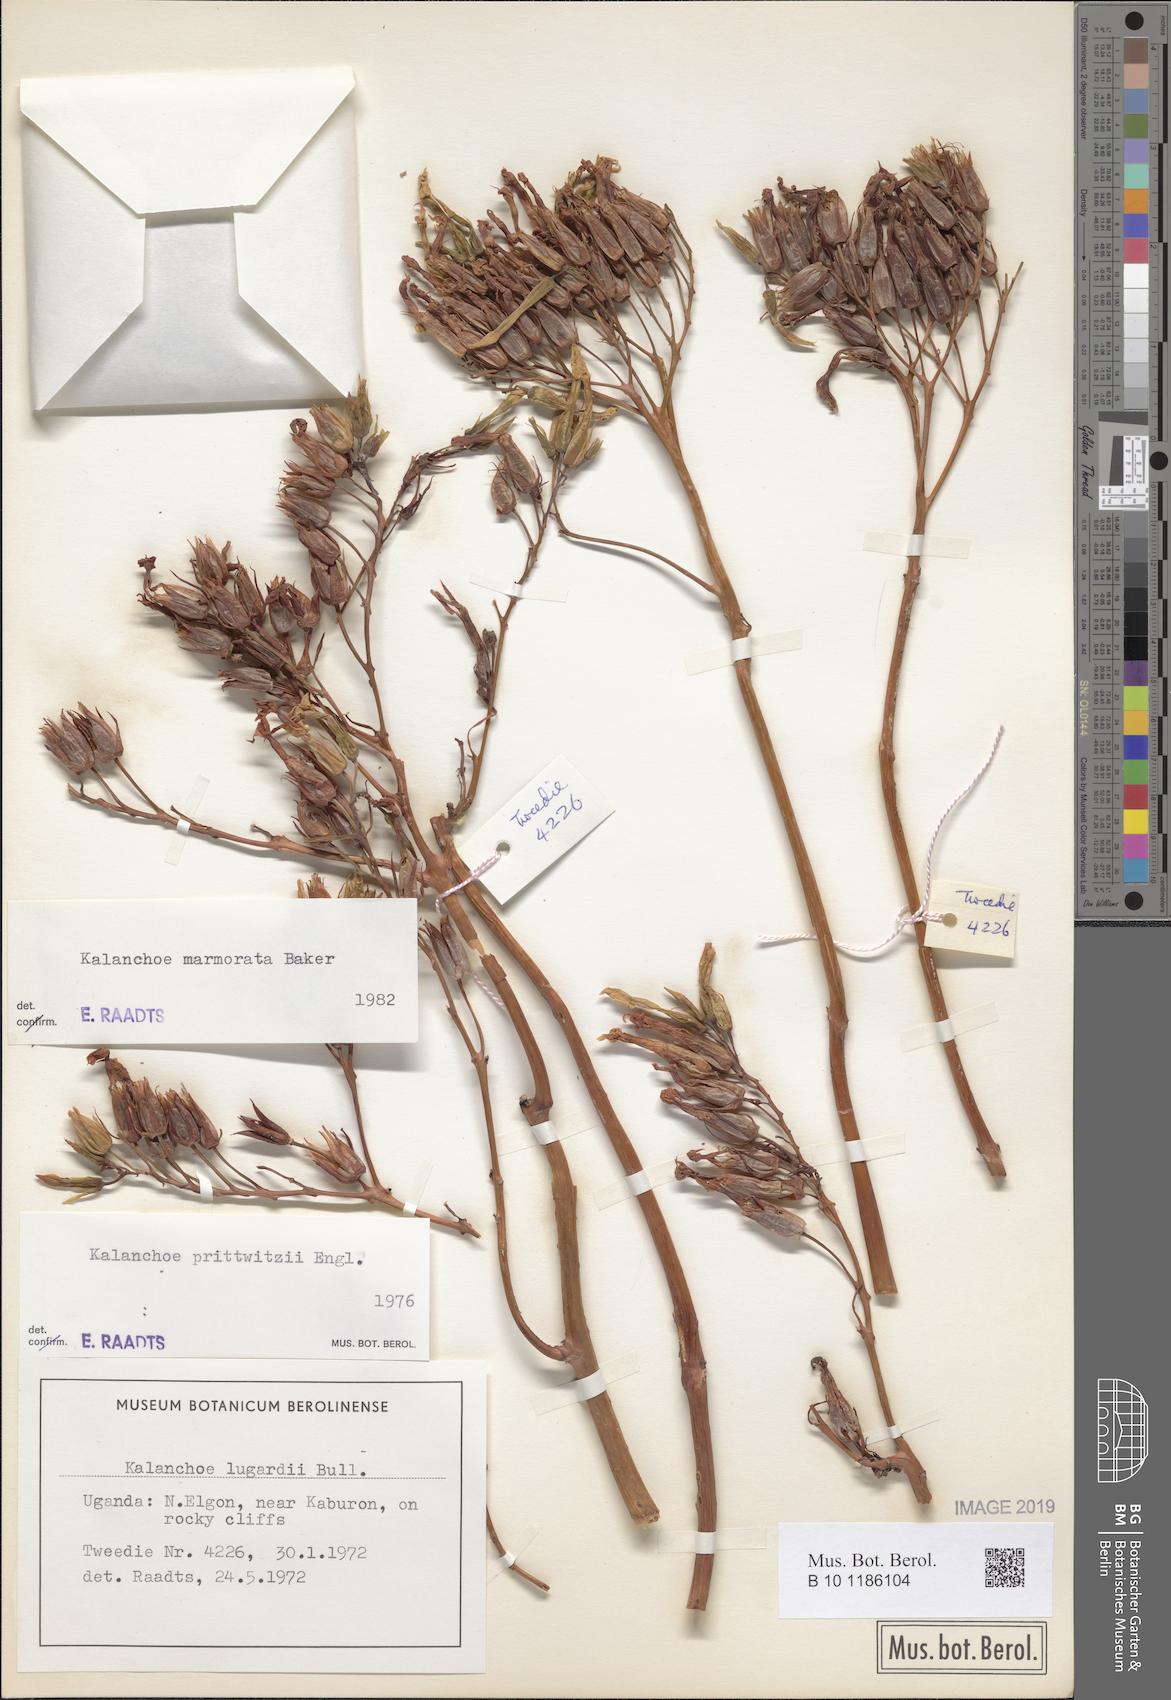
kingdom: Plantae
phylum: Tracheophyta
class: Magnoliopsida
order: Saxifragales
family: Crassulaceae
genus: Kalanchoe
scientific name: Kalanchoe marmorata
